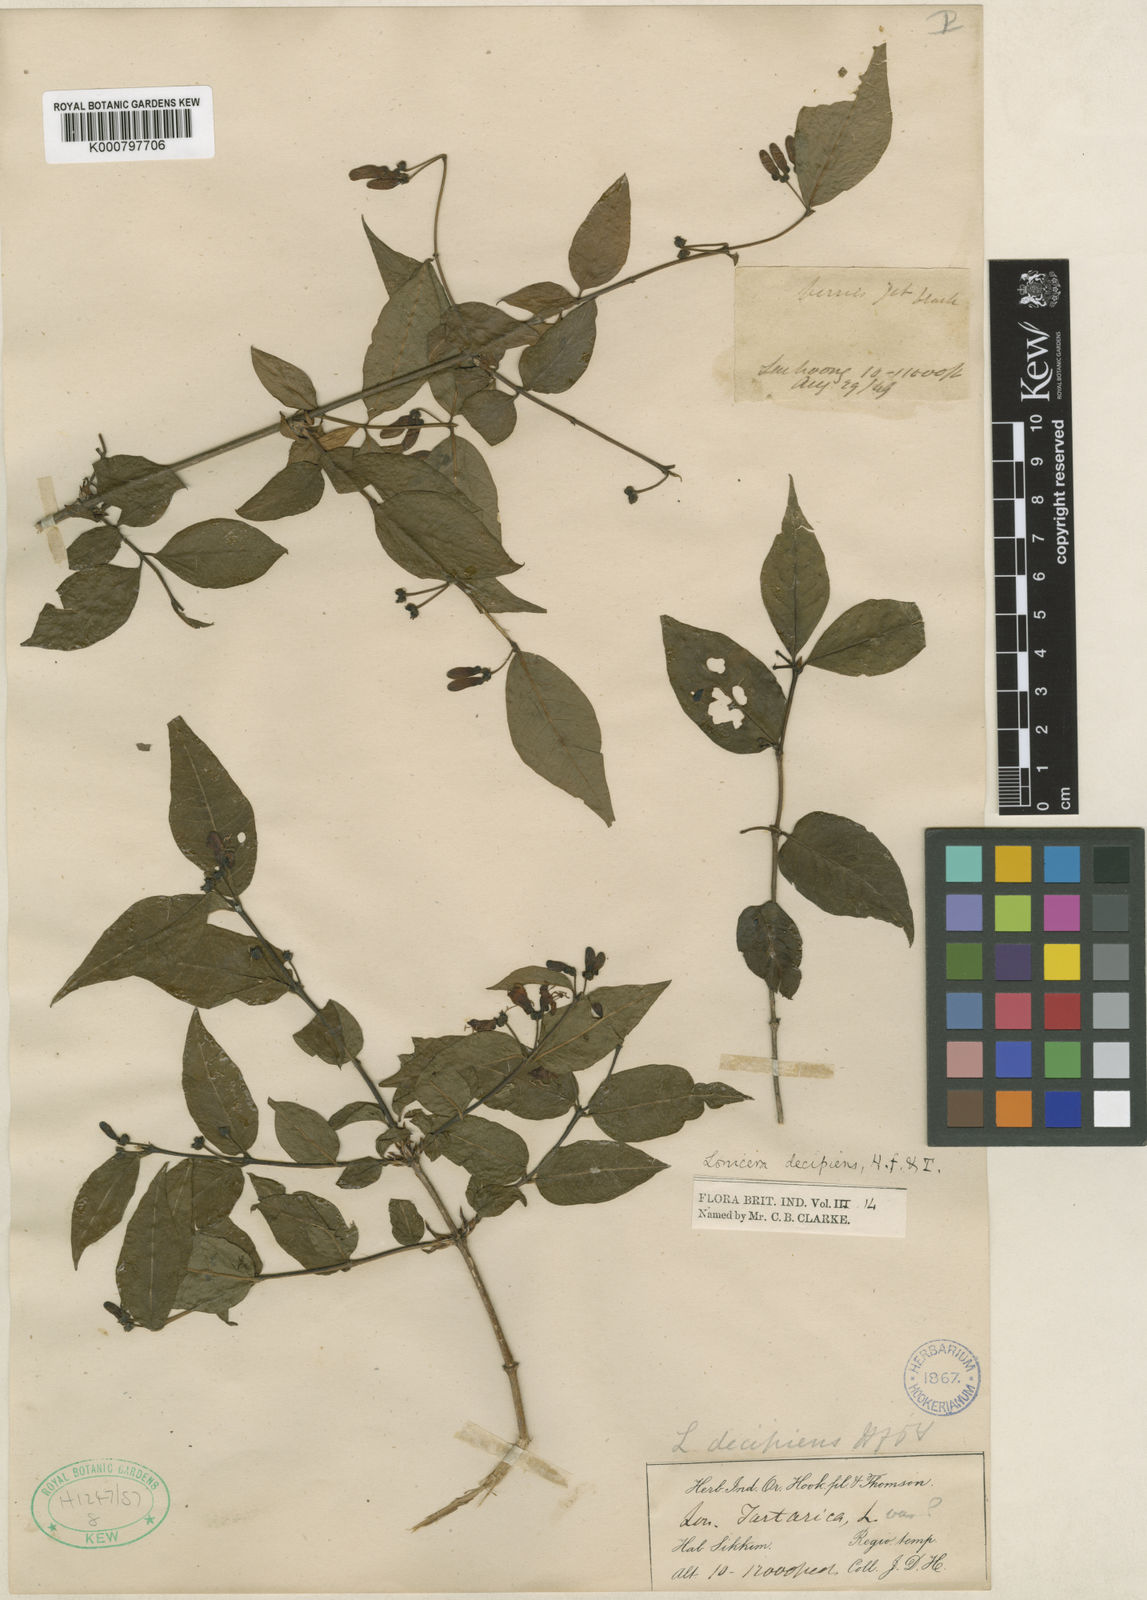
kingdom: Plantae
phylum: Tracheophyta
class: Magnoliopsida
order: Dipsacales
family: Caprifoliaceae
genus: Lonicera
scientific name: Lonicera lanceolata
